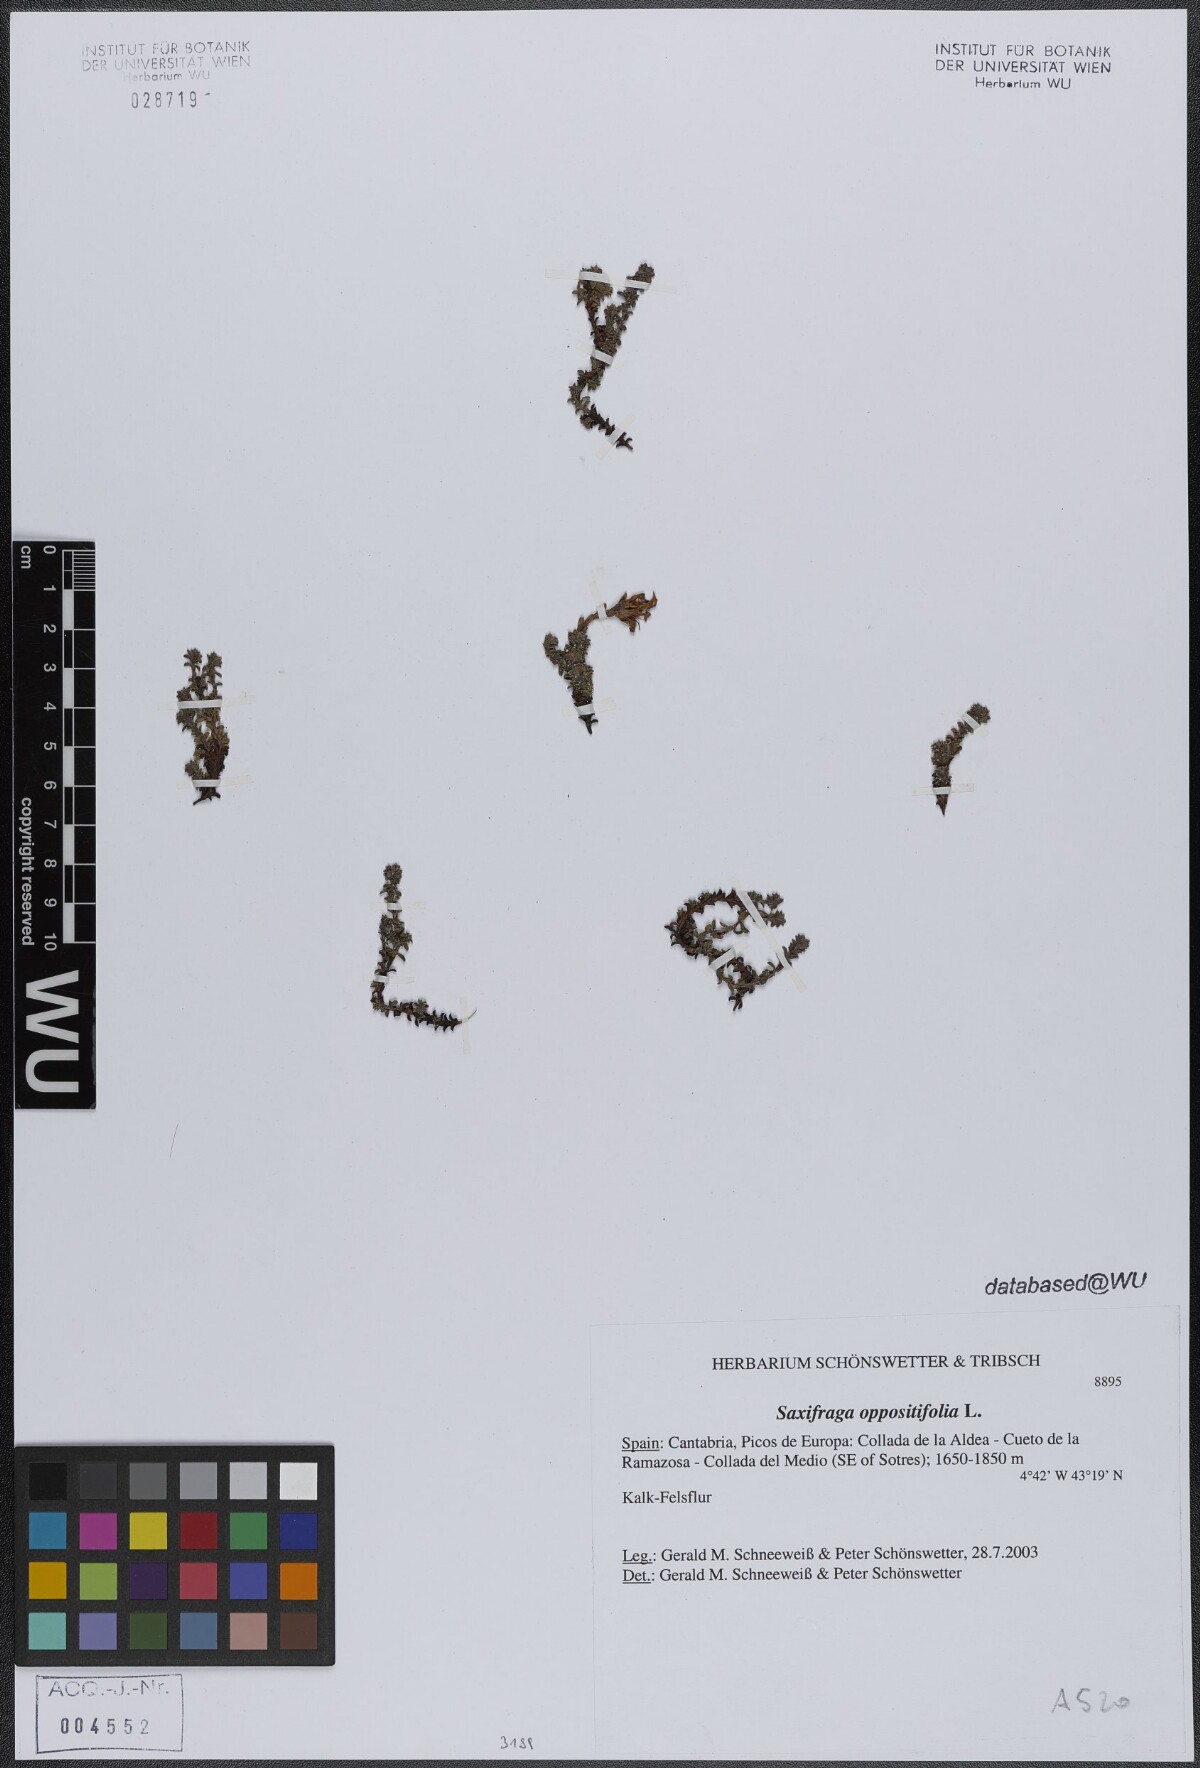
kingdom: Plantae
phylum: Tracheophyta
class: Magnoliopsida
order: Saxifragales
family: Saxifragaceae
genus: Saxifraga
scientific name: Saxifraga oppositifolia
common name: Purple saxifrage
